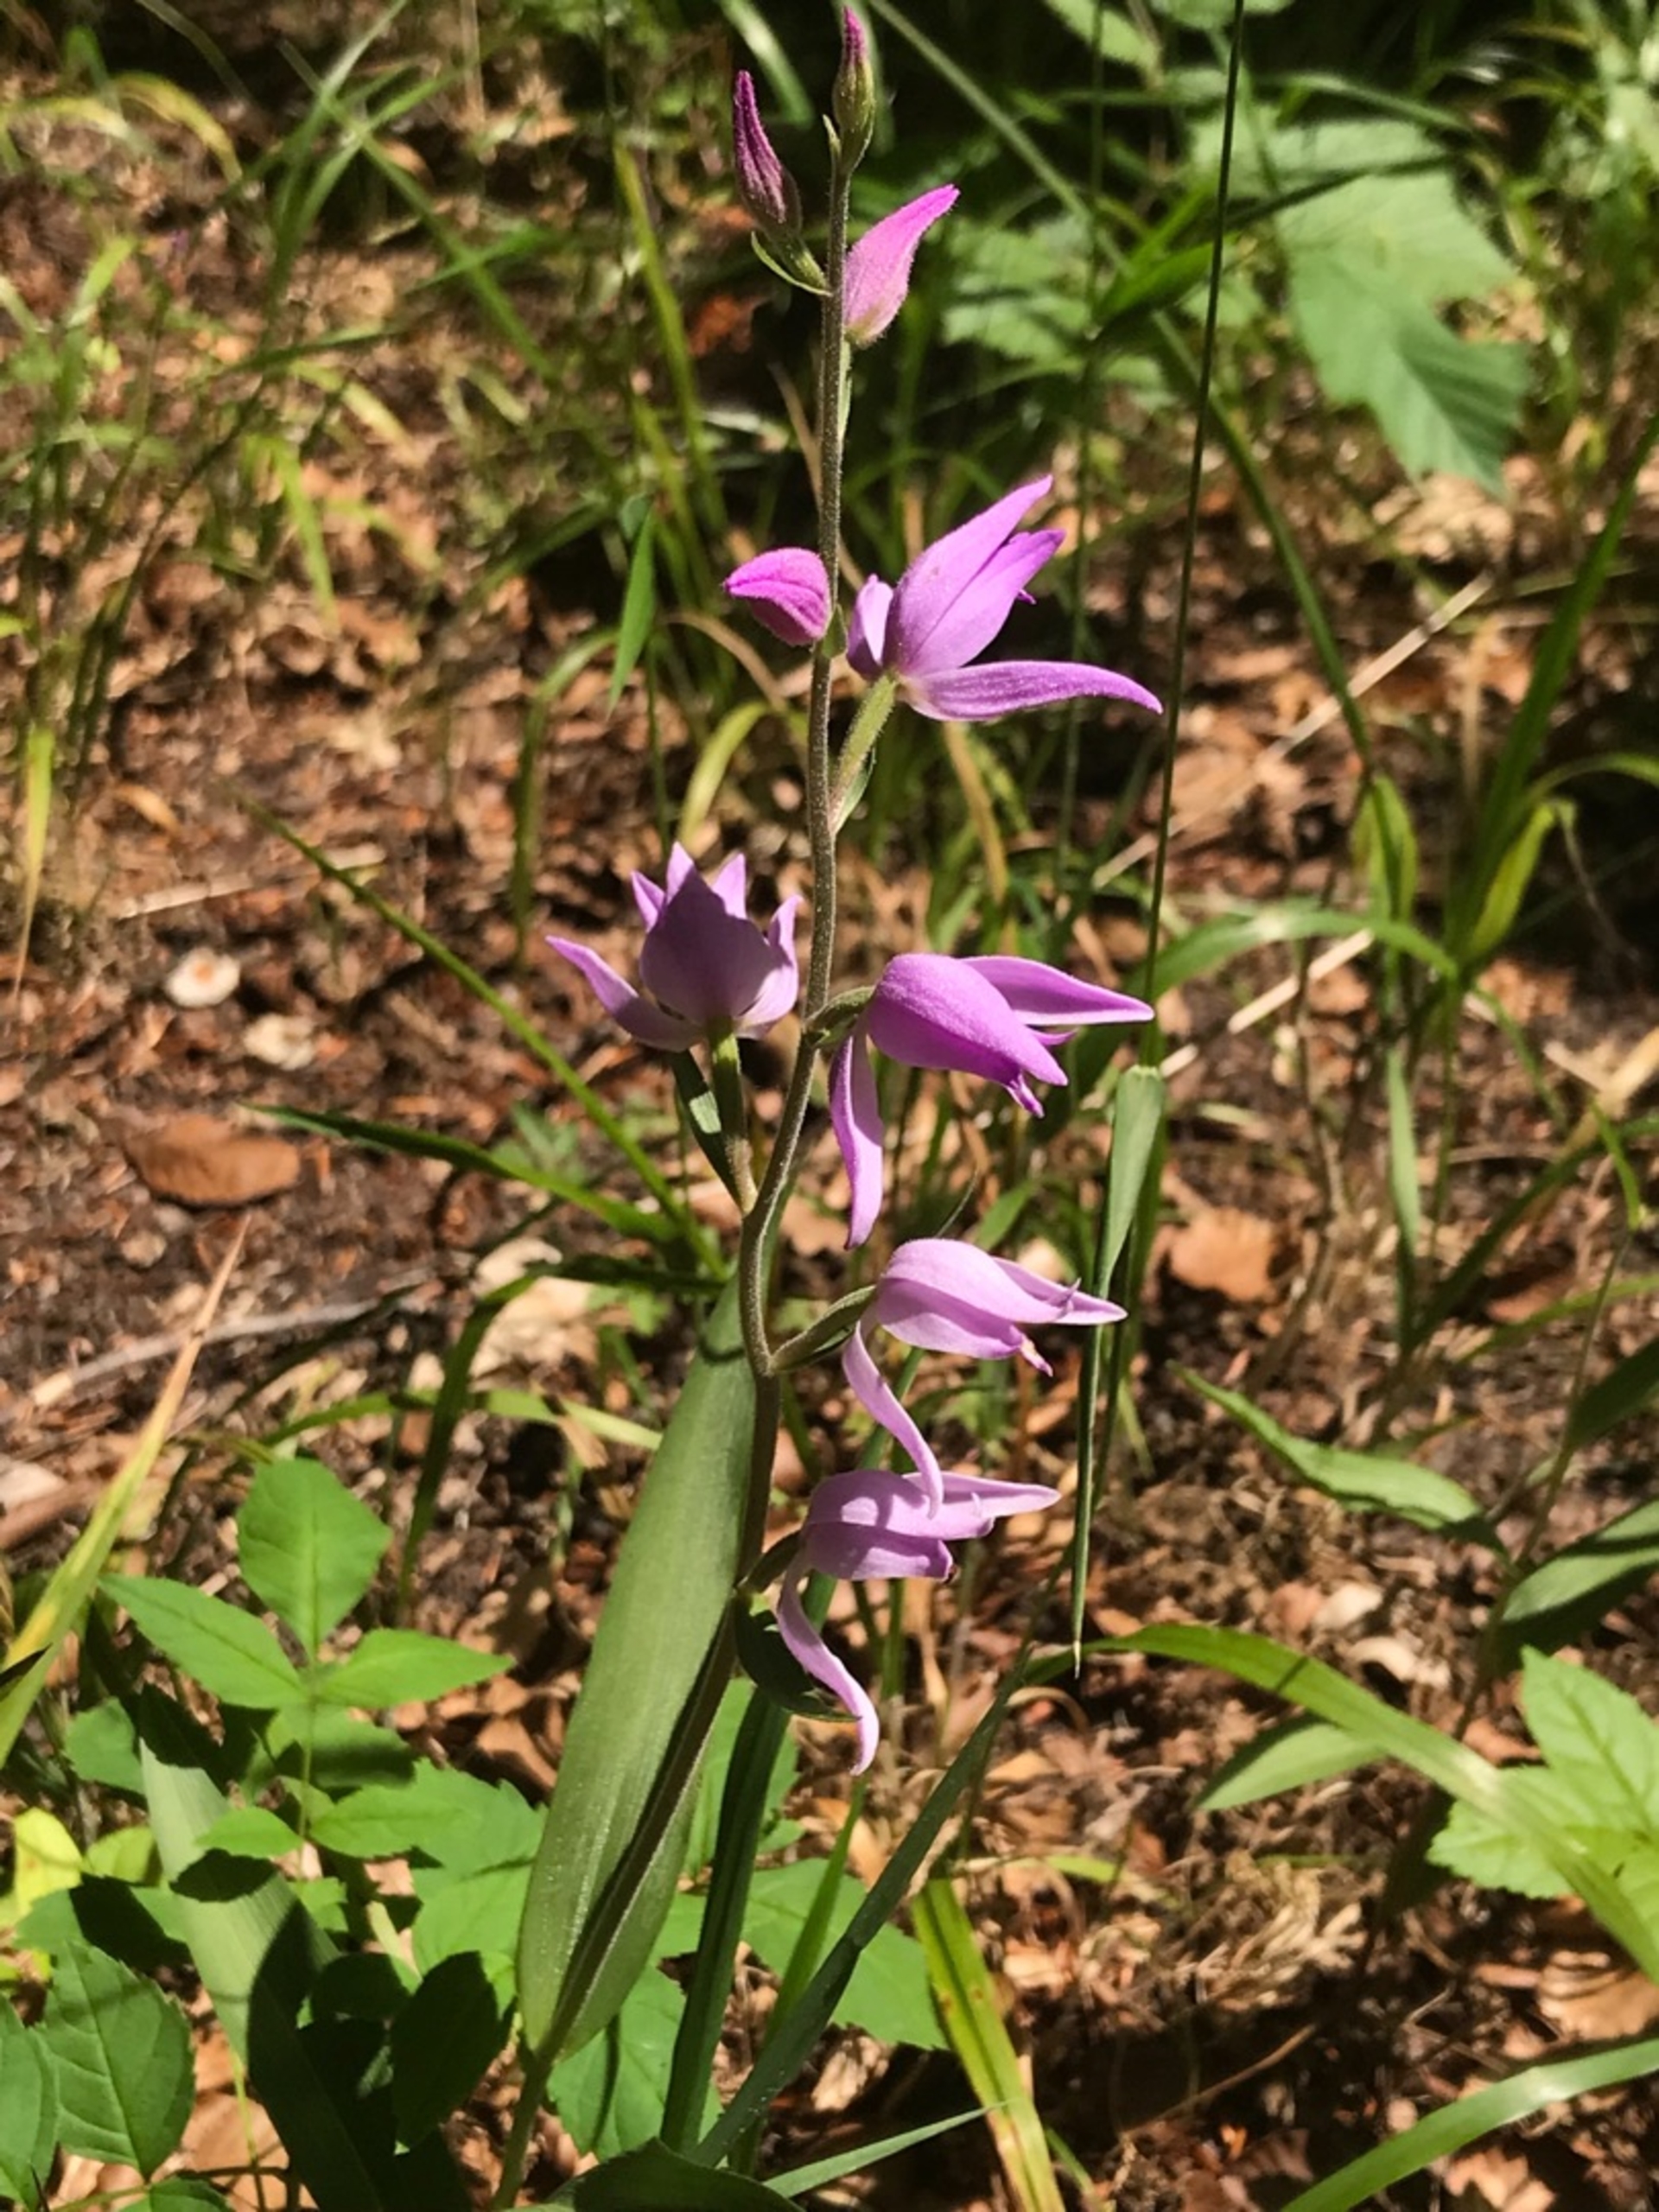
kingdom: Plantae
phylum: Tracheophyta
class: Liliopsida
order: Asparagales
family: Orchidaceae
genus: Cephalanthera
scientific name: Cephalanthera rubra
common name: Rød skovlilje
